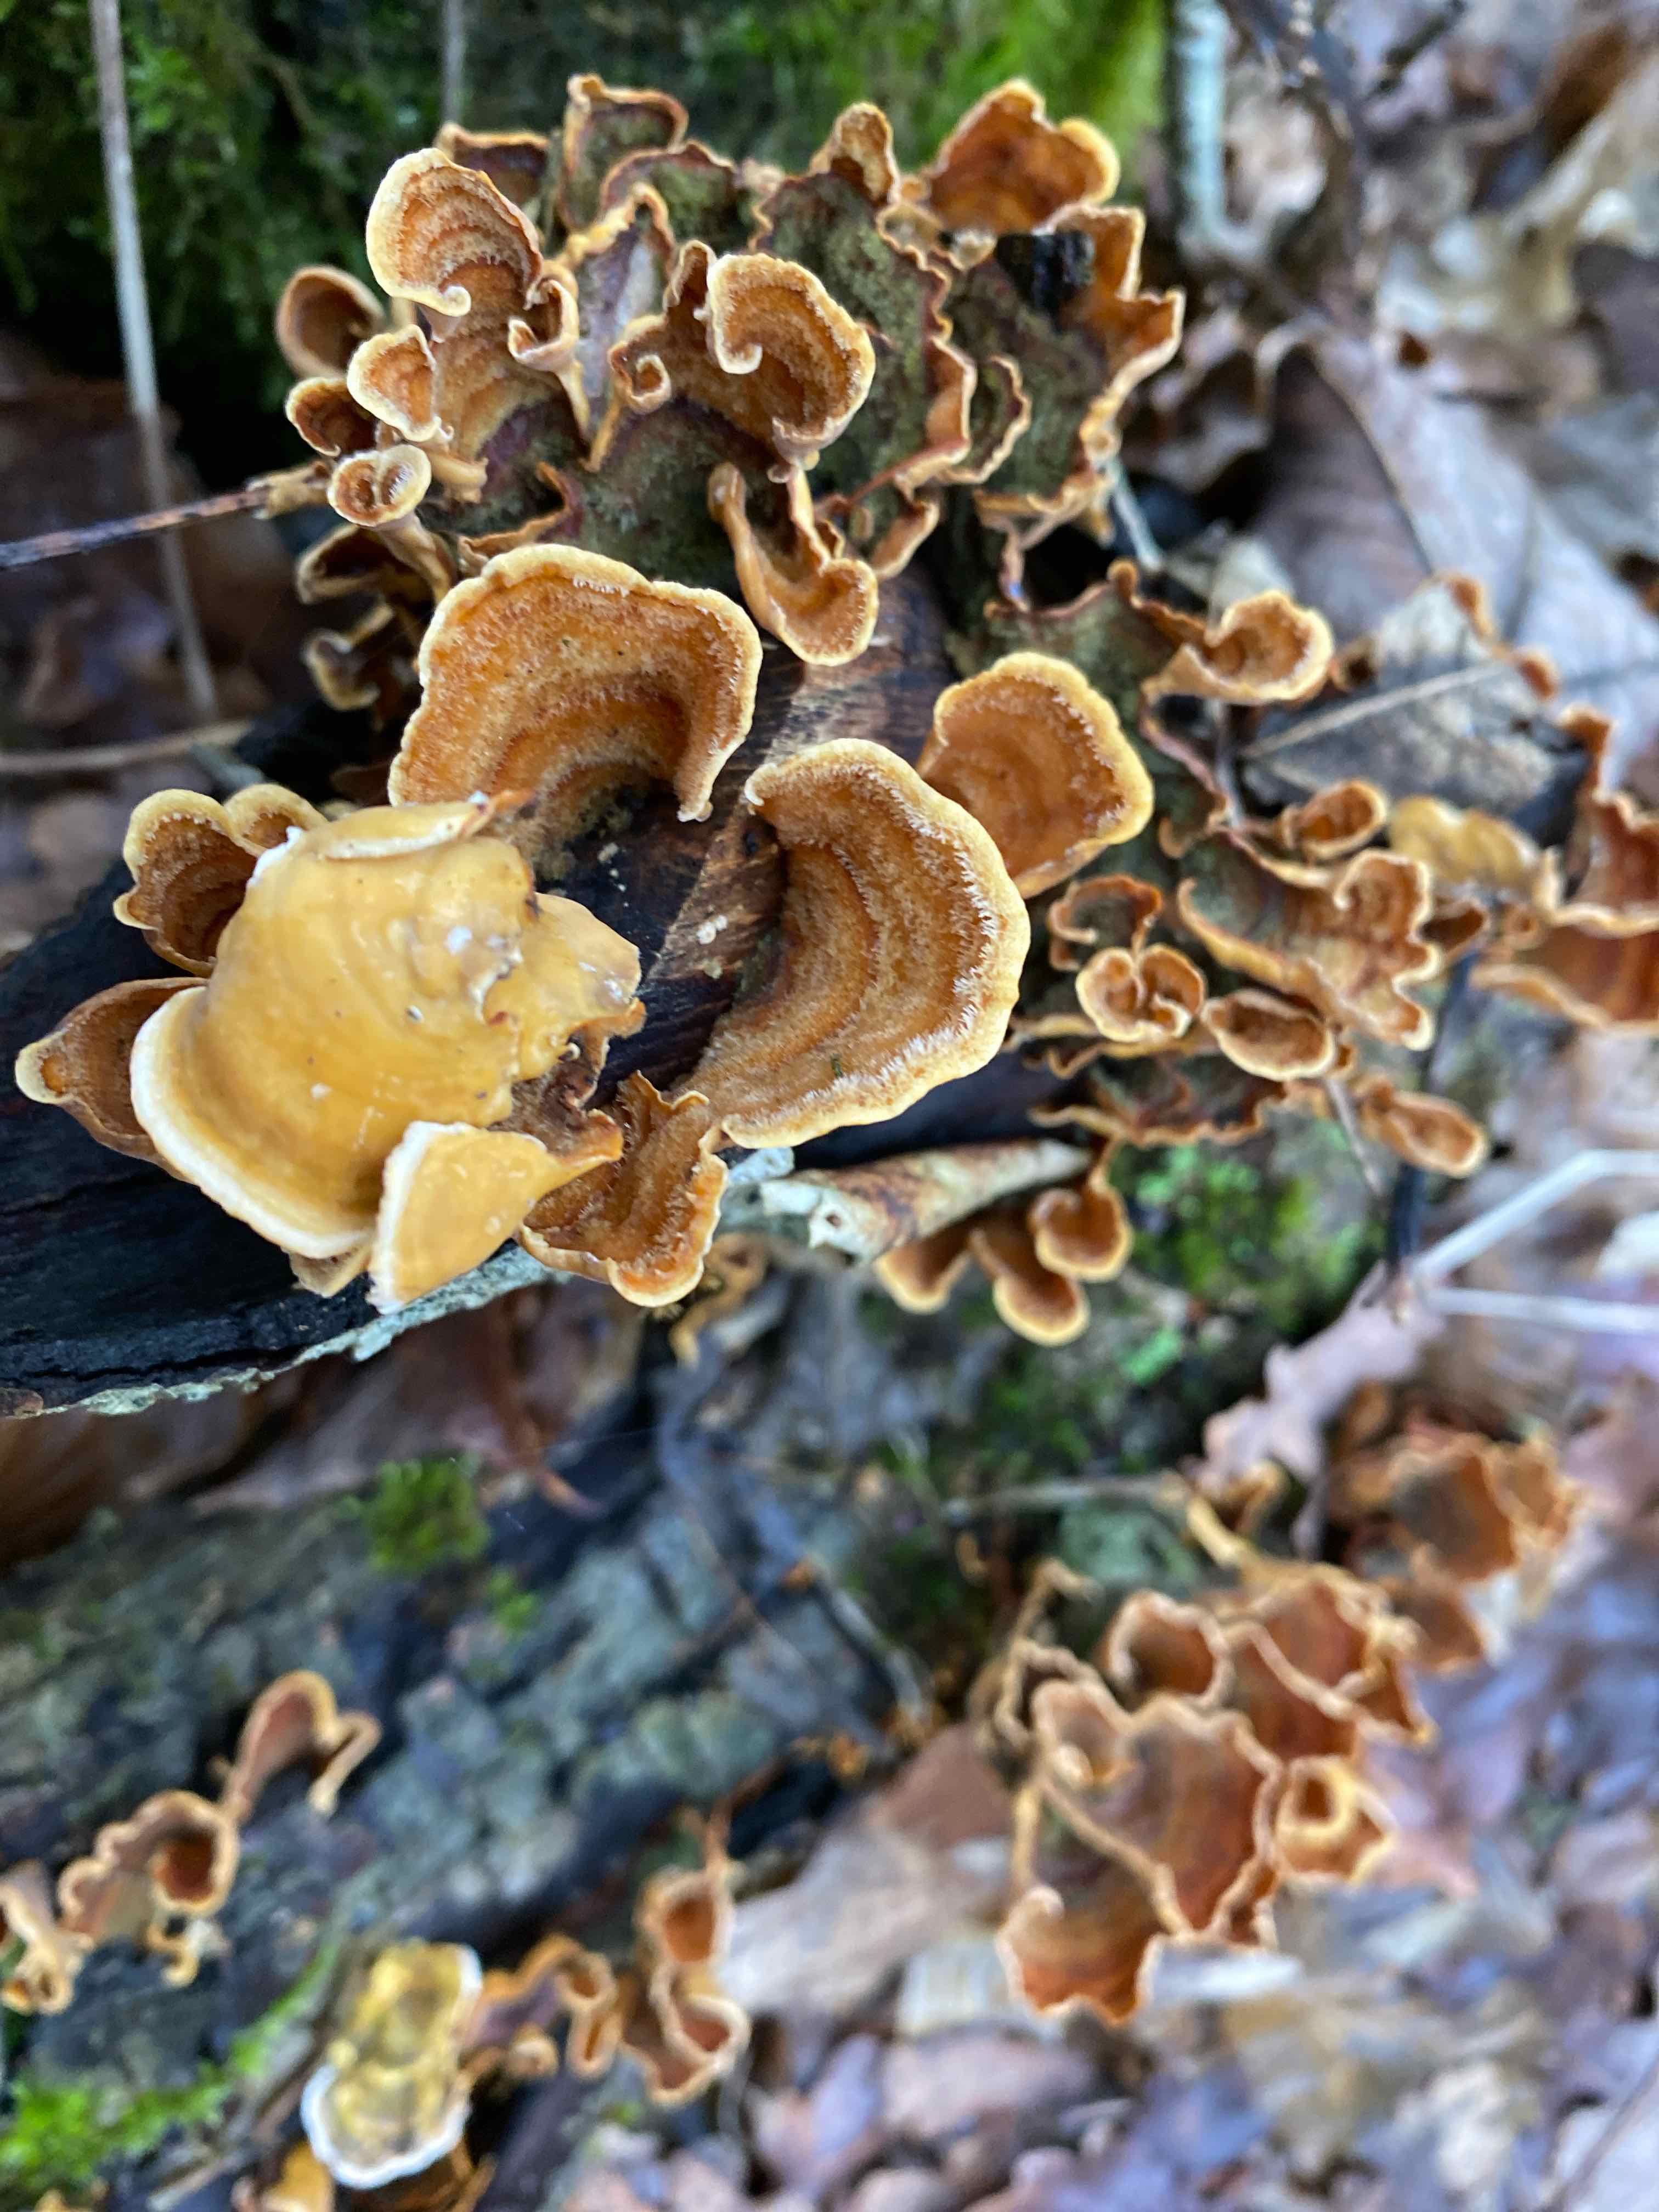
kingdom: Fungi
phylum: Basidiomycota
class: Agaricomycetes
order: Russulales
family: Stereaceae
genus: Stereum
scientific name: Stereum hirsutum
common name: håret lædersvamp
